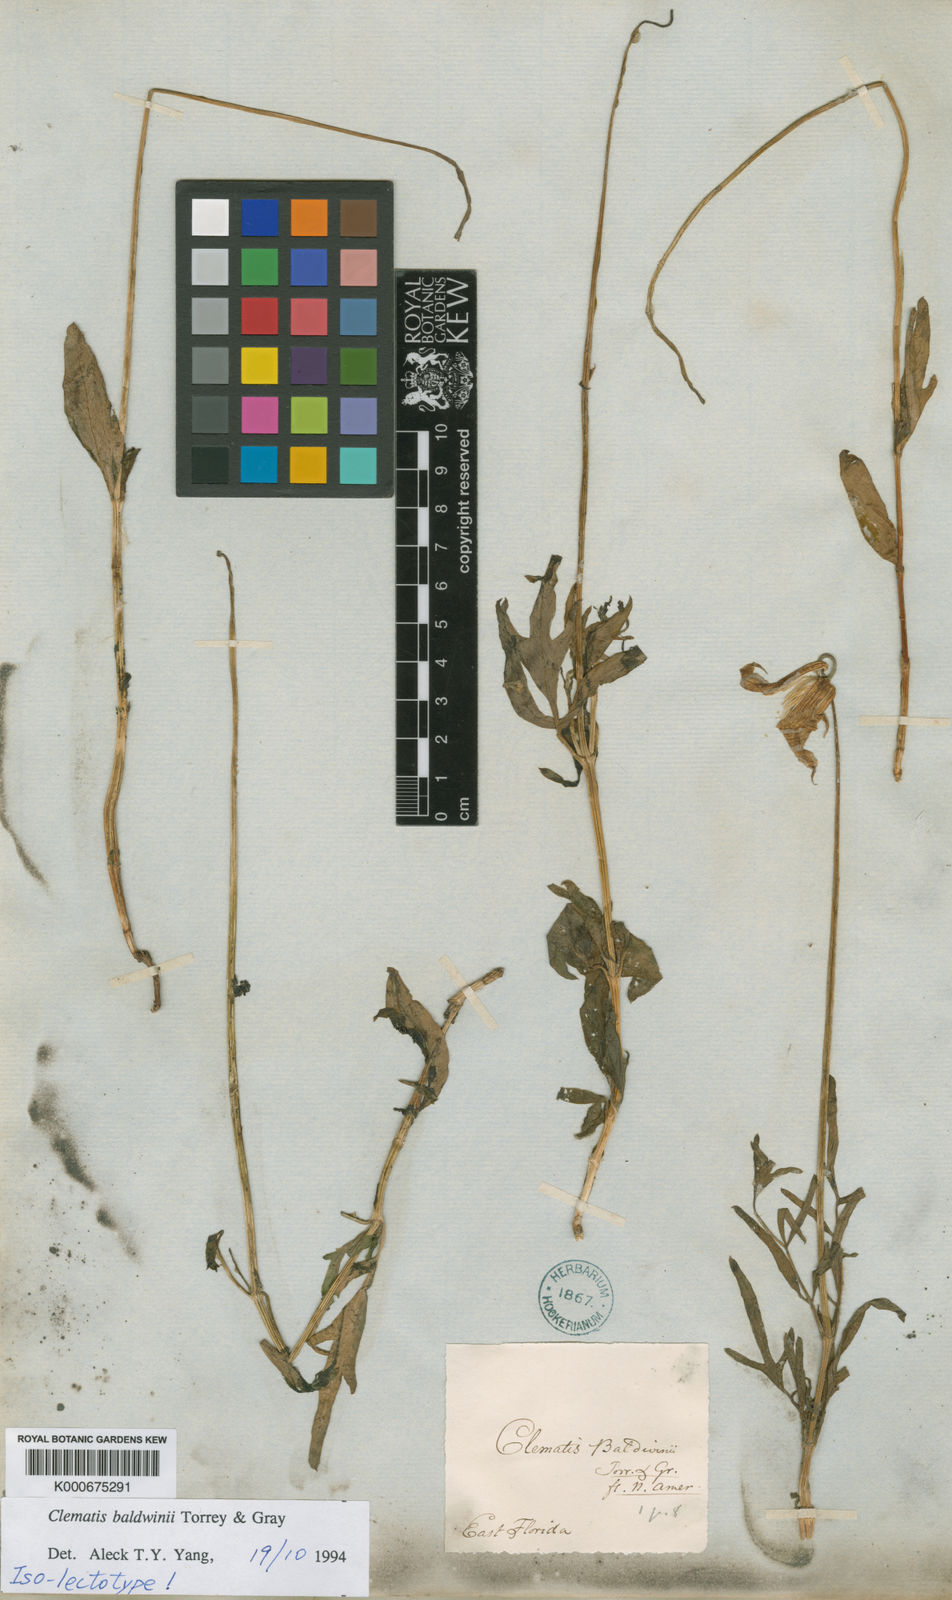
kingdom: Plantae
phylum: Tracheophyta
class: Magnoliopsida
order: Ranunculales
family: Ranunculaceae
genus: Clematis
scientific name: Clematis baldwinii
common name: Pine-hyacinth
